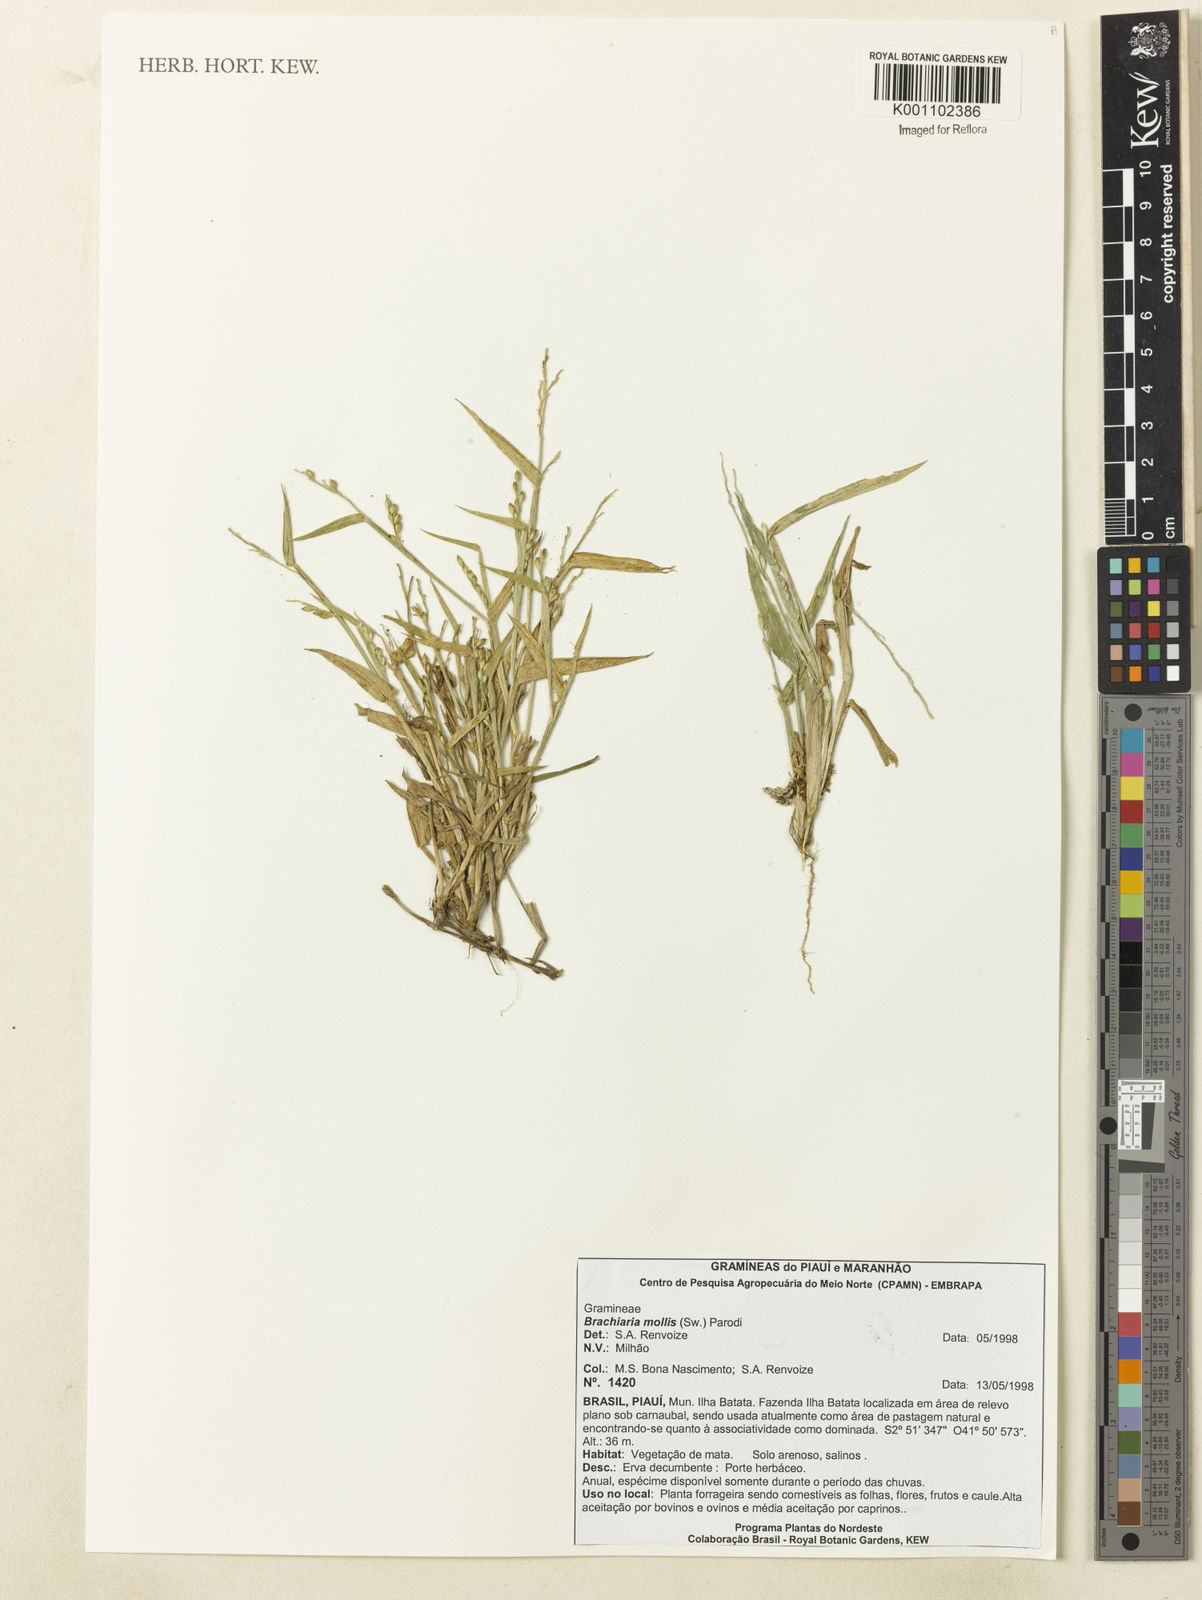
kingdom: Plantae
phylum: Tracheophyta
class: Liliopsida
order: Poales
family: Poaceae
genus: Urochloa
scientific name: Urochloa mollis
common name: Grass
